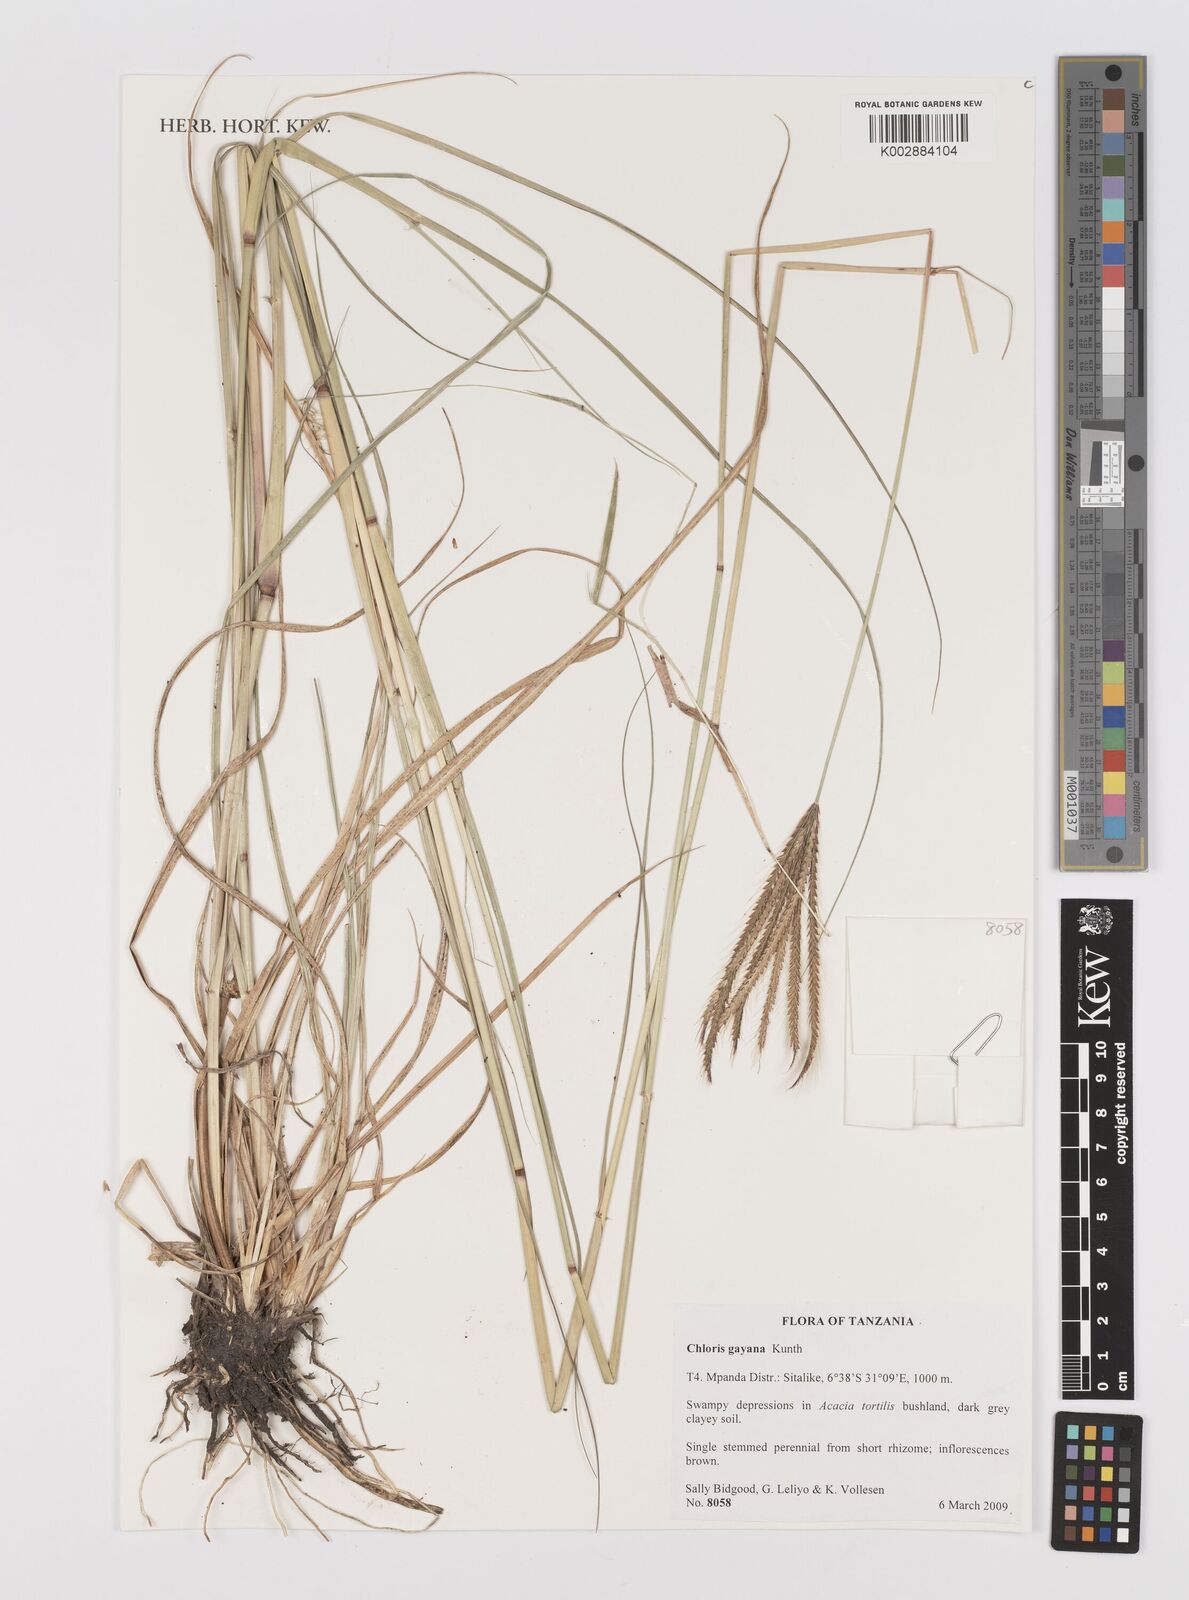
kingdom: Plantae
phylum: Tracheophyta
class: Liliopsida
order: Poales
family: Poaceae
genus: Chloris
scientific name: Chloris gayana
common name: Rhodes grass
